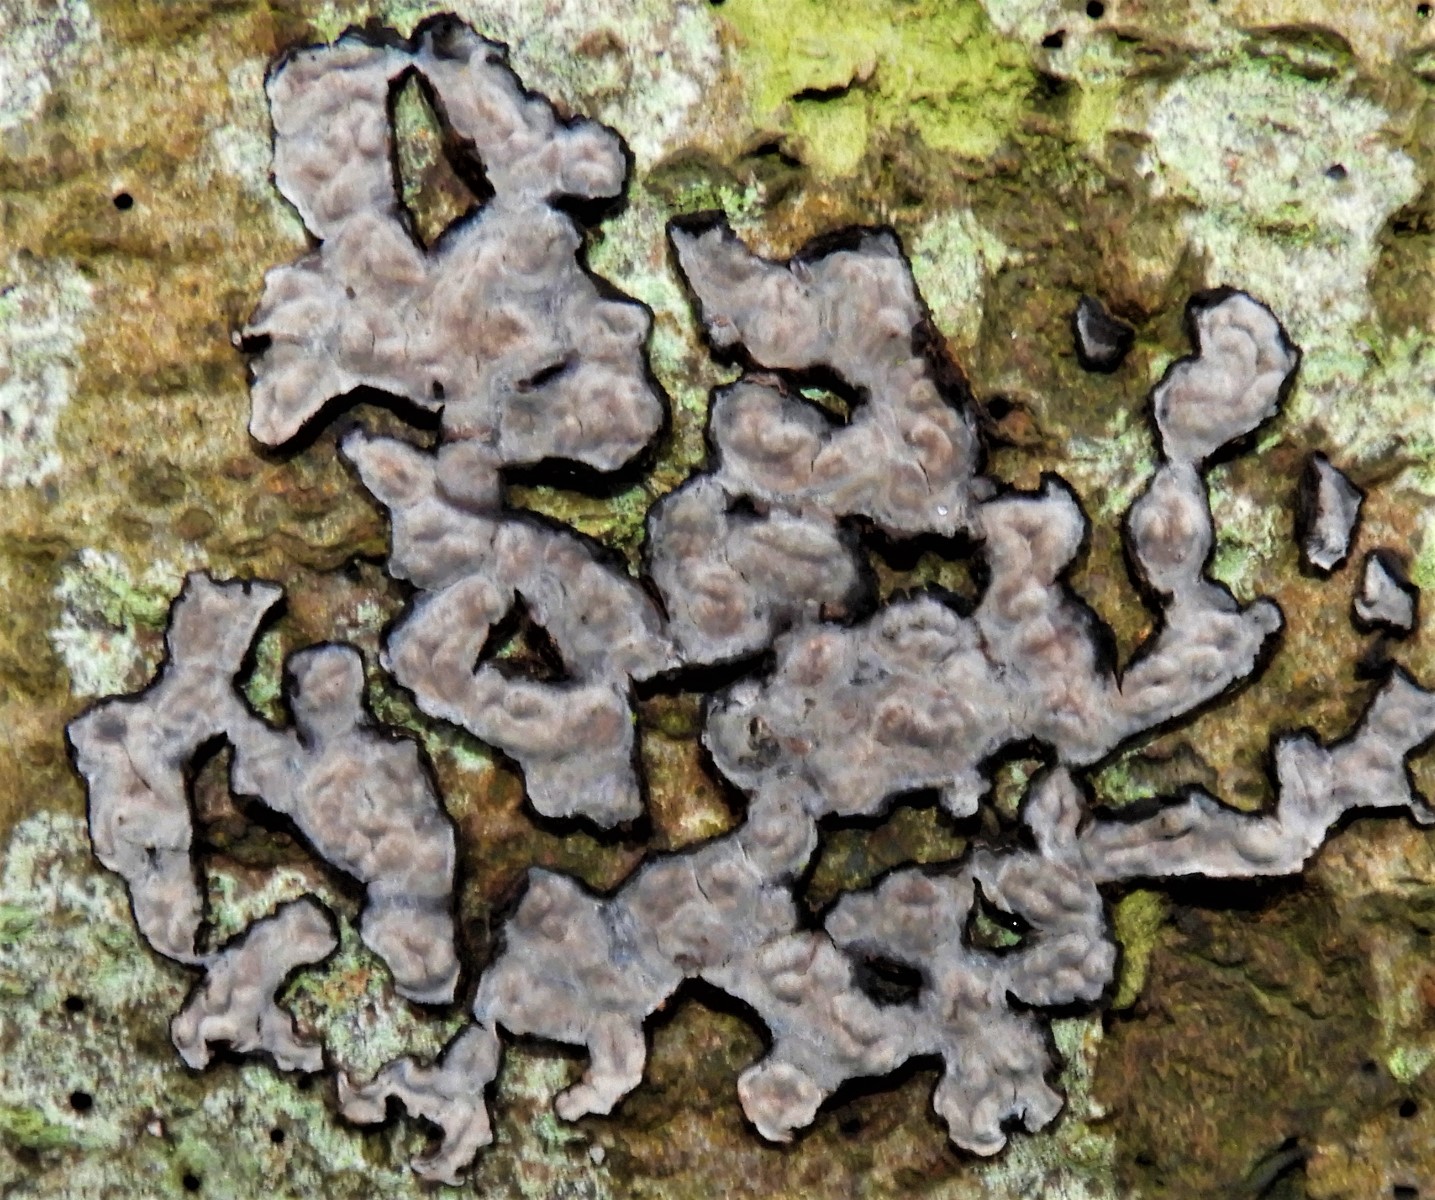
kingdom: Fungi
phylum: Basidiomycota
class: Agaricomycetes
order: Russulales
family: Peniophoraceae
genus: Peniophora
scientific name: Peniophora quercina
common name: ege-voksskind
